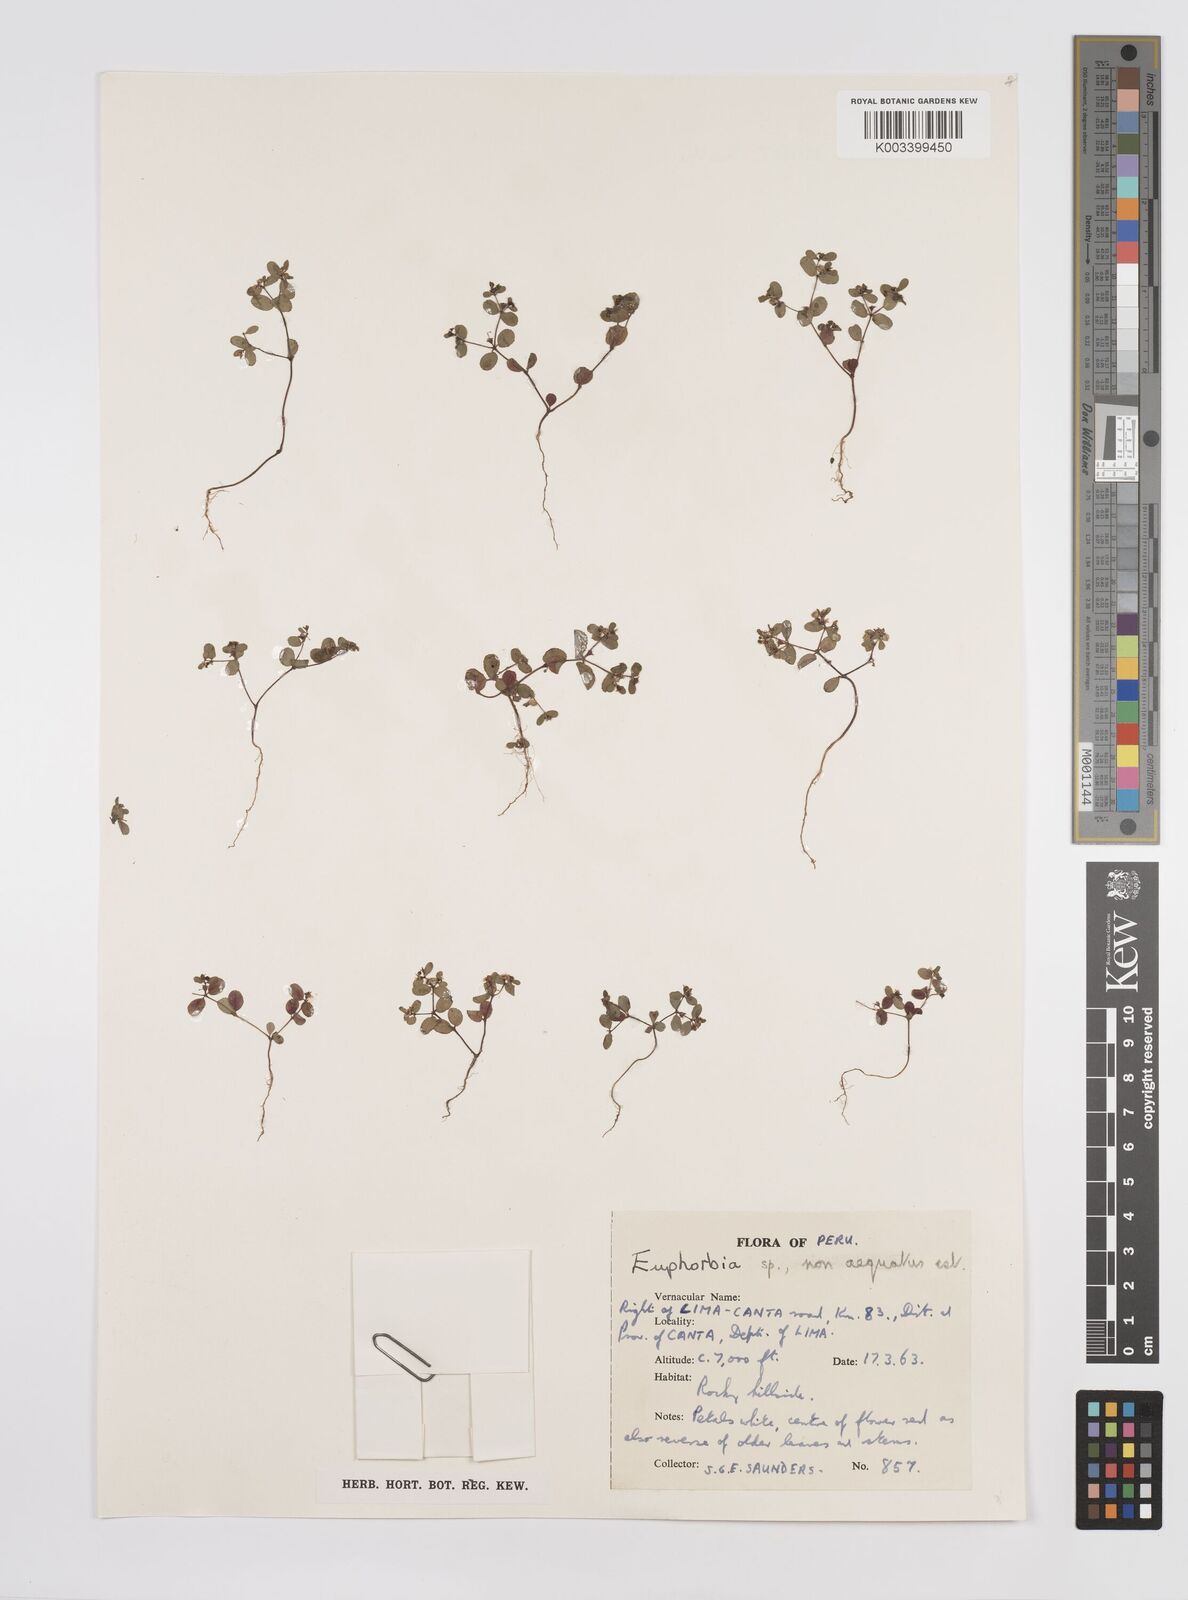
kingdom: Plantae
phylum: Tracheophyta
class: Magnoliopsida
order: Malpighiales
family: Euphorbiaceae
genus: Euphorbia
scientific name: Euphorbia
